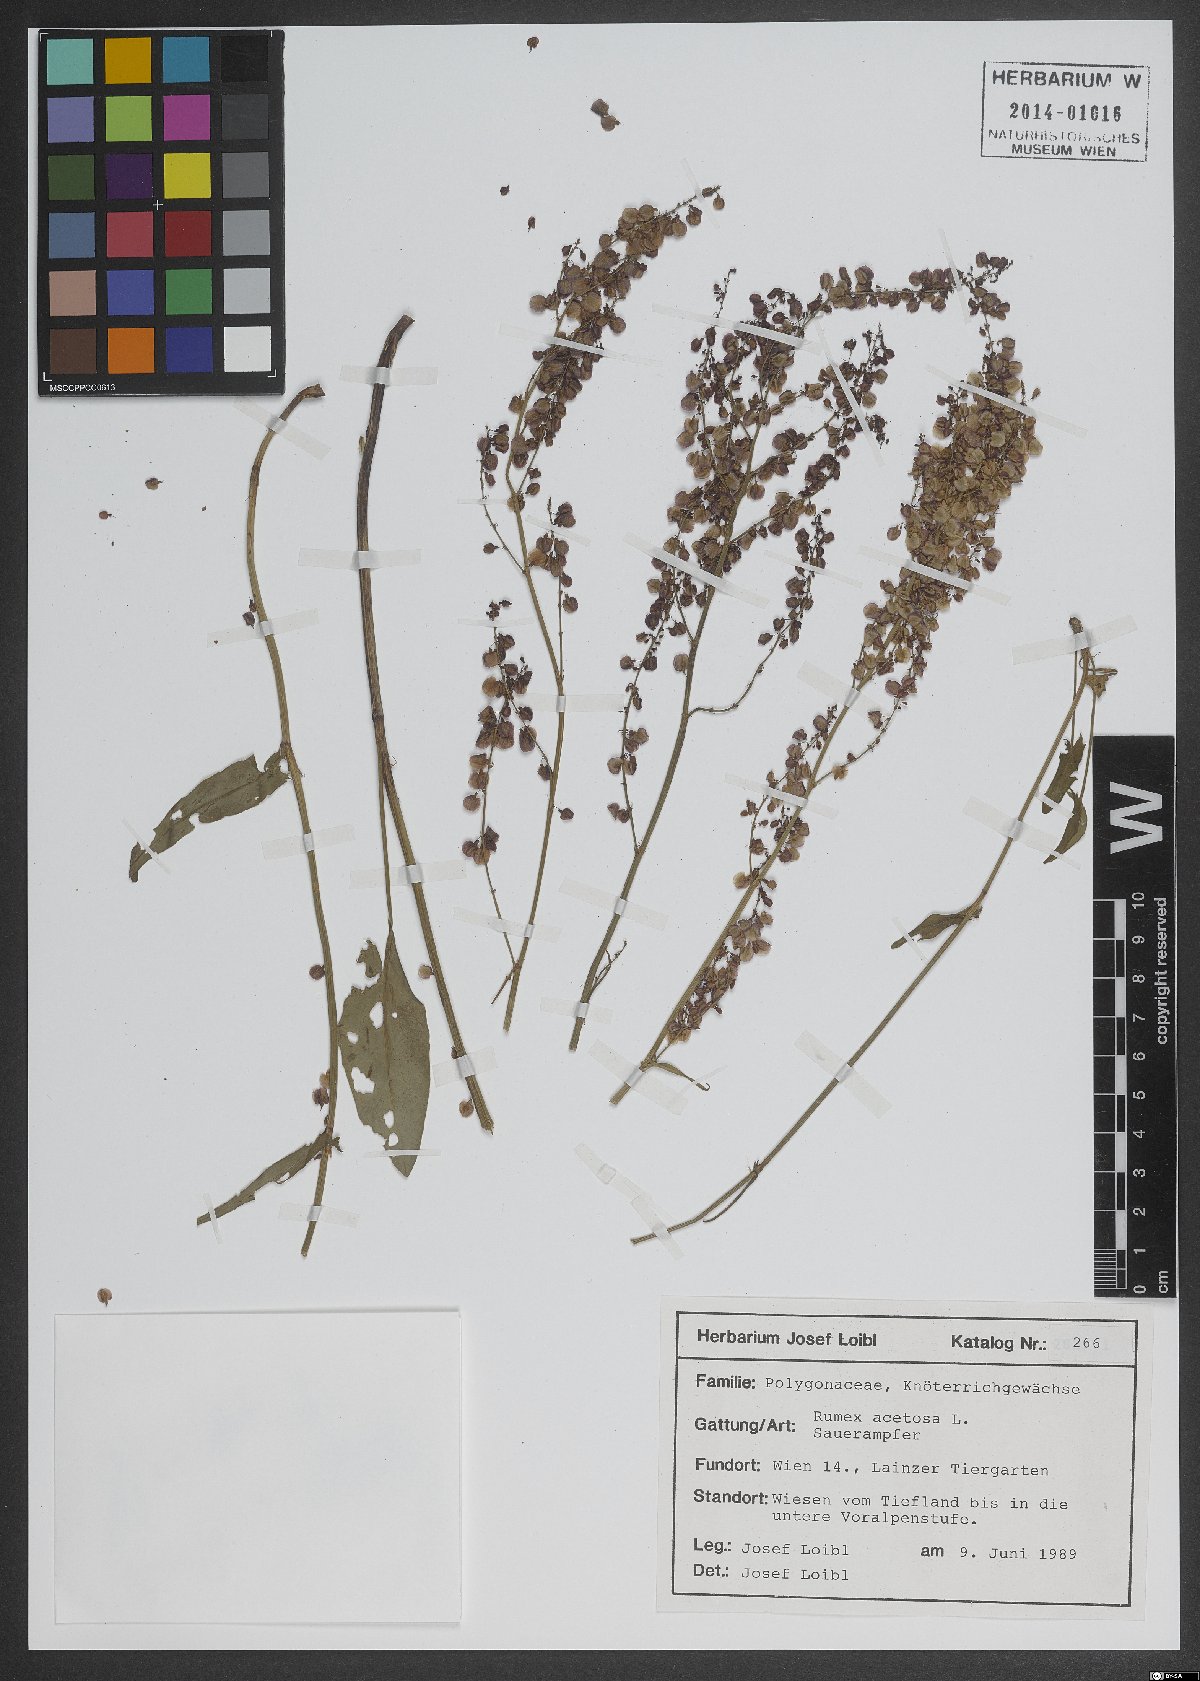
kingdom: Plantae
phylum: Tracheophyta
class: Magnoliopsida
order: Fagales
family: Fagaceae
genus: Quercus
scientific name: Quercus pubescens
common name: Downy oak
